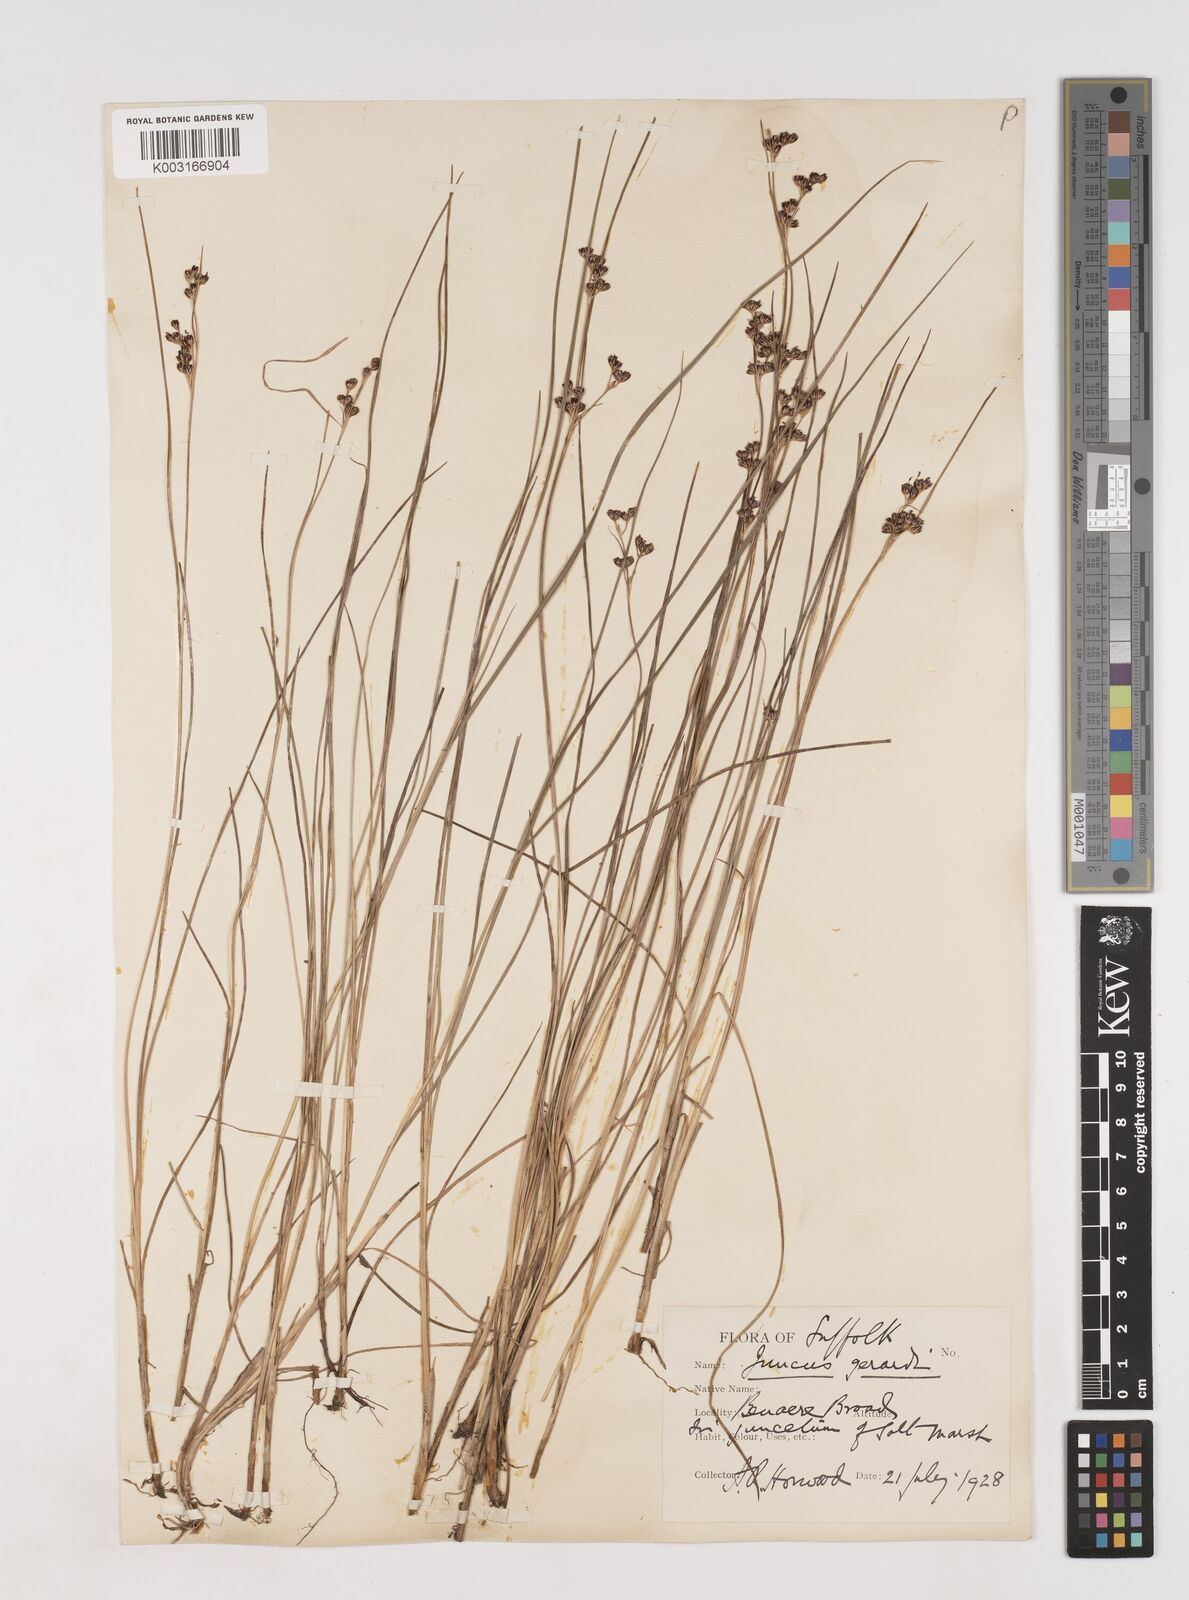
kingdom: Plantae
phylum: Tracheophyta
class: Liliopsida
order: Poales
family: Juncaceae
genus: Juncus
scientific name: Juncus gerardi
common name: Saltmarsh rush
